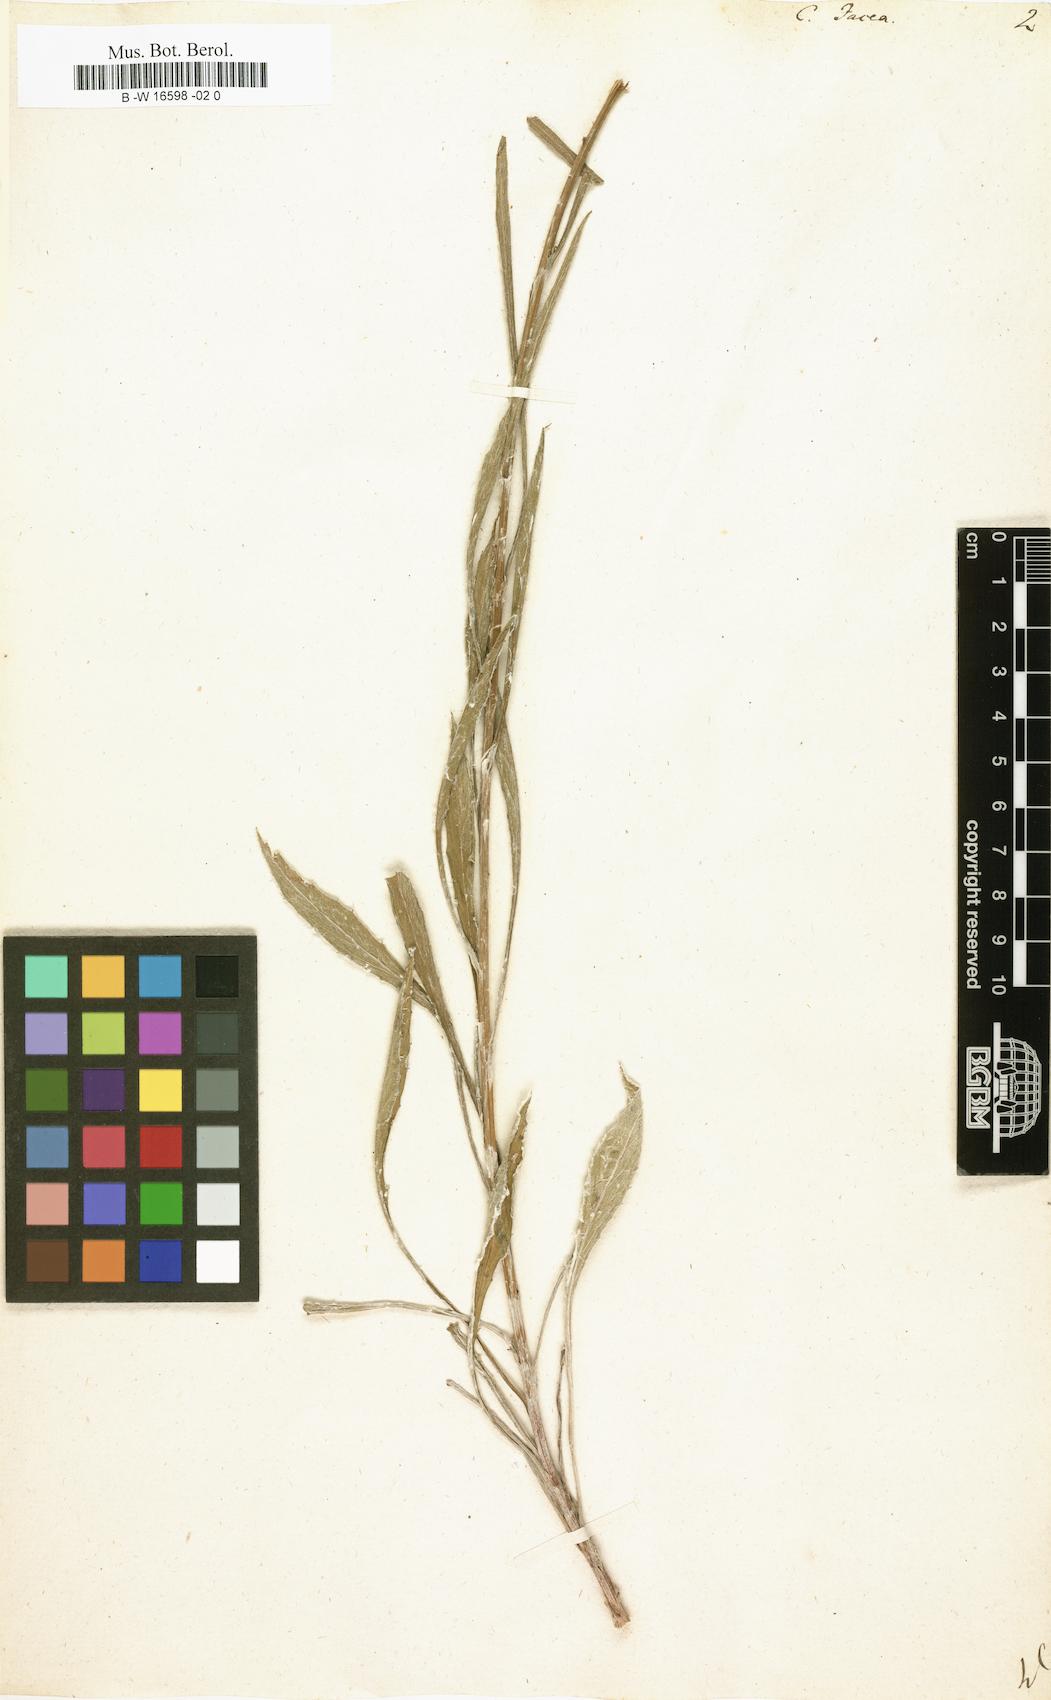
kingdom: Plantae
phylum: Tracheophyta
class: Magnoliopsida
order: Asterales
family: Asteraceae
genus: Centaurea
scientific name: Centaurea jacea
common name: Brown knapweed
